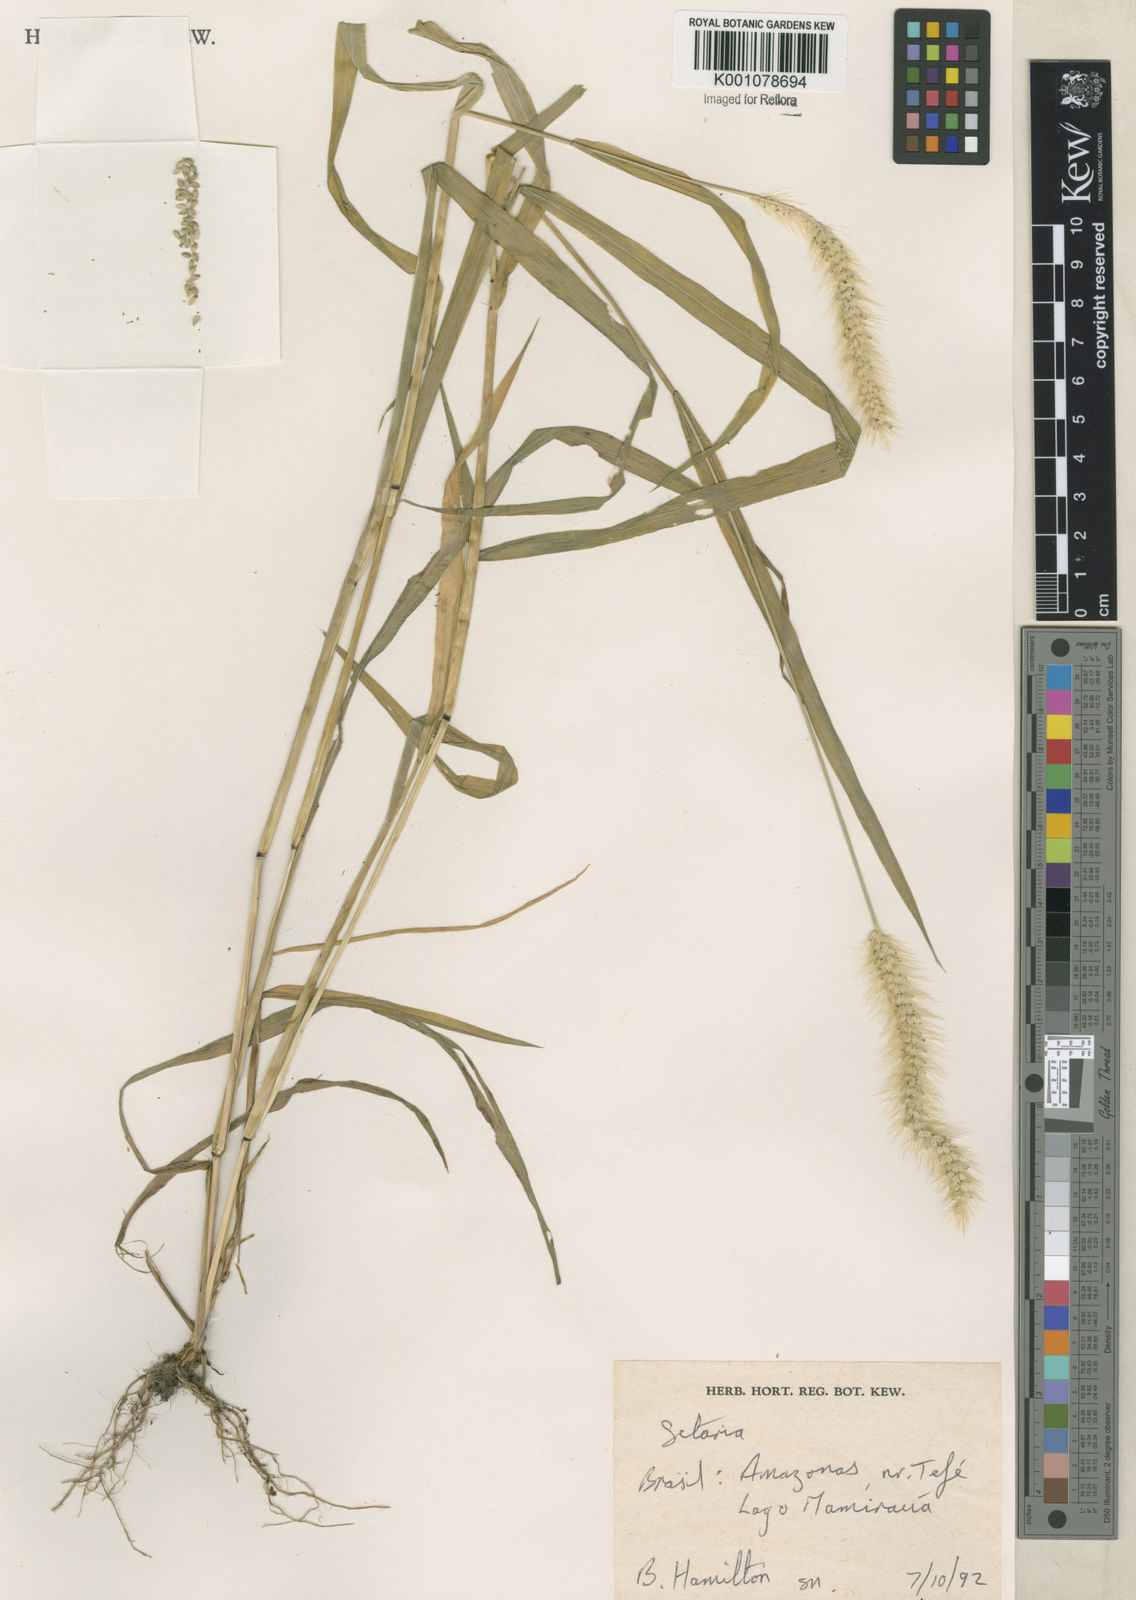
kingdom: Plantae
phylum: Tracheophyta
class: Liliopsida
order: Poales
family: Poaceae
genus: Setaria
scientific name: Setaria
